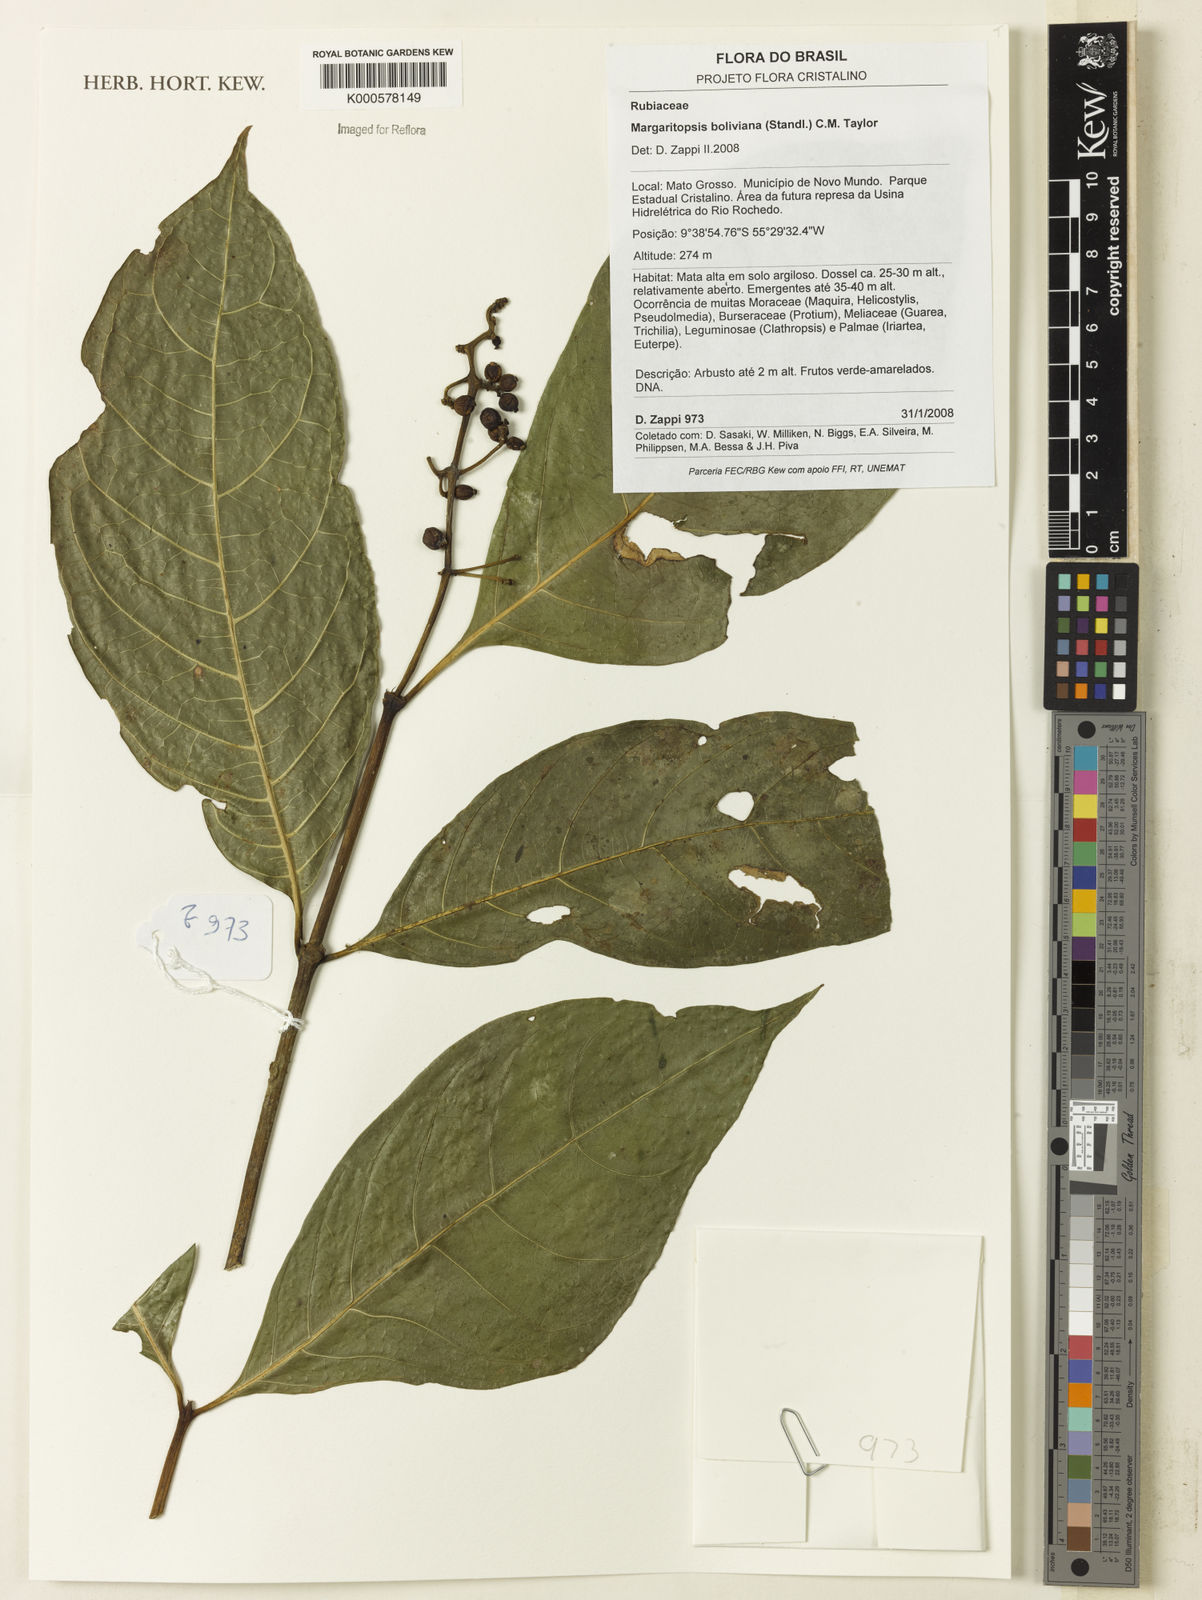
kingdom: Plantae
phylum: Tracheophyta
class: Magnoliopsida
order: Gentianales
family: Rubiaceae
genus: Eumachia
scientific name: Eumachia boliviana
